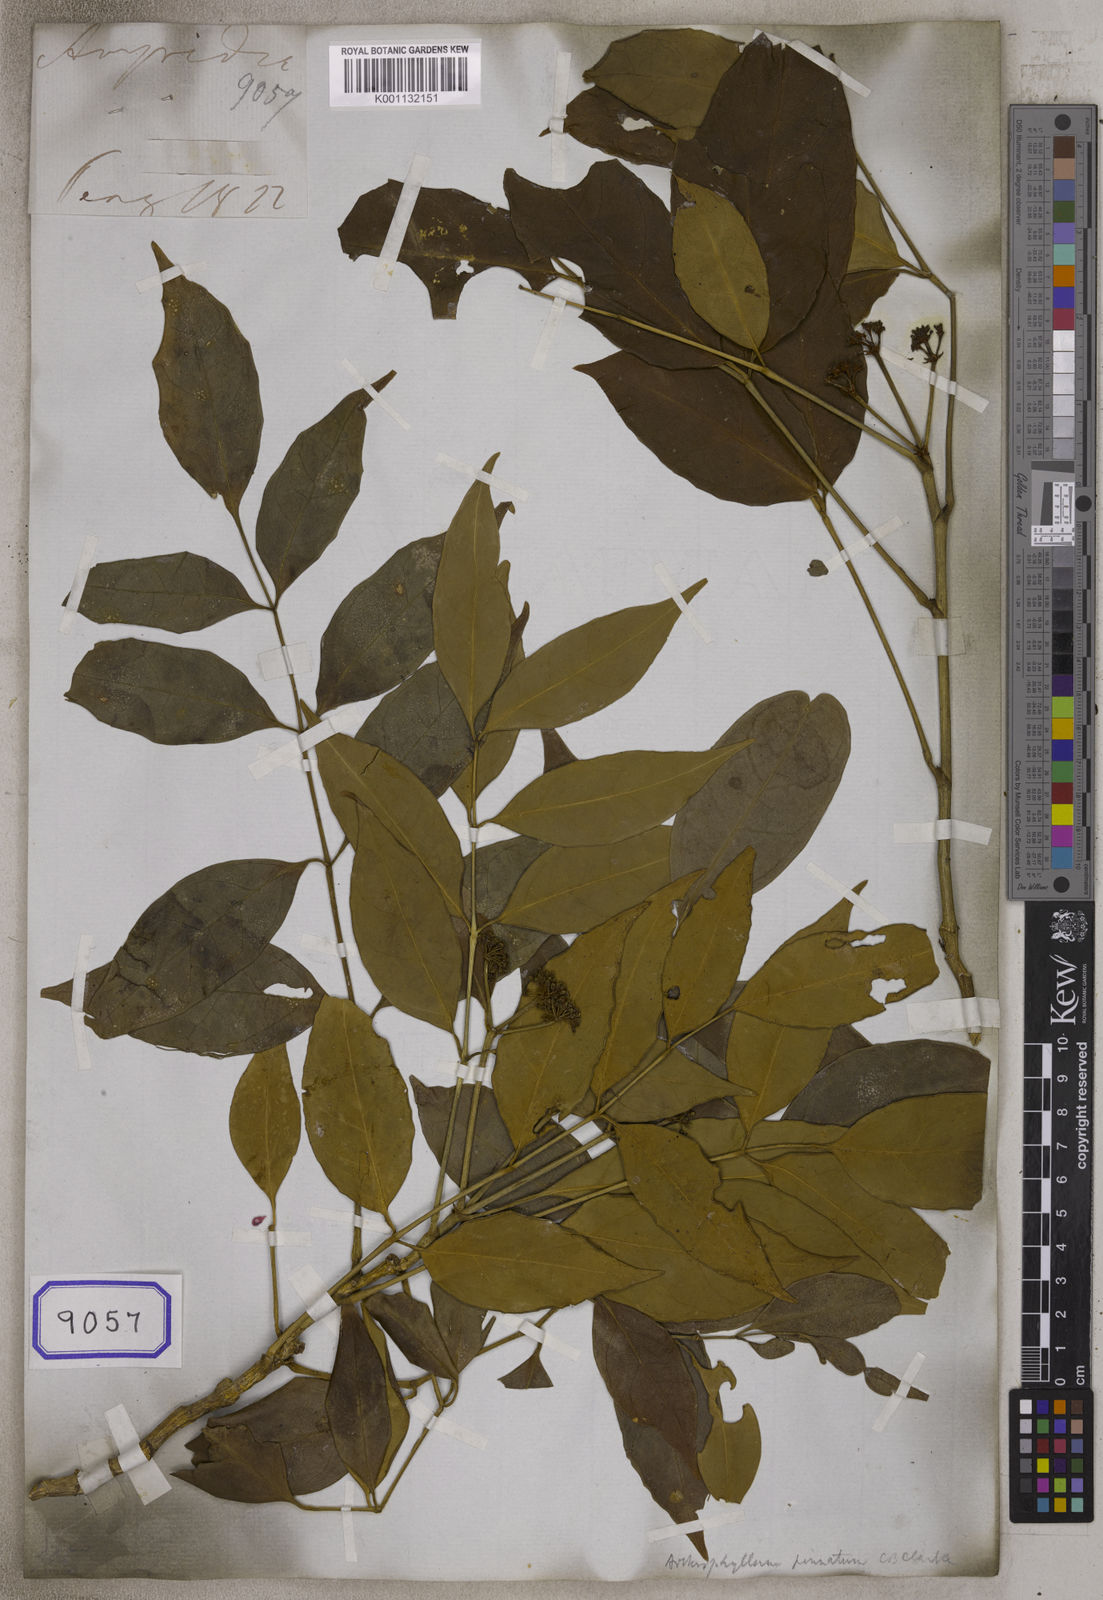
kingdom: Plantae
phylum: Tracheophyta
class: Magnoliopsida
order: Apiales
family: Araliaceae
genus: Polyscias
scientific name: Polyscias cumingiana
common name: Fern-leaf aralia
